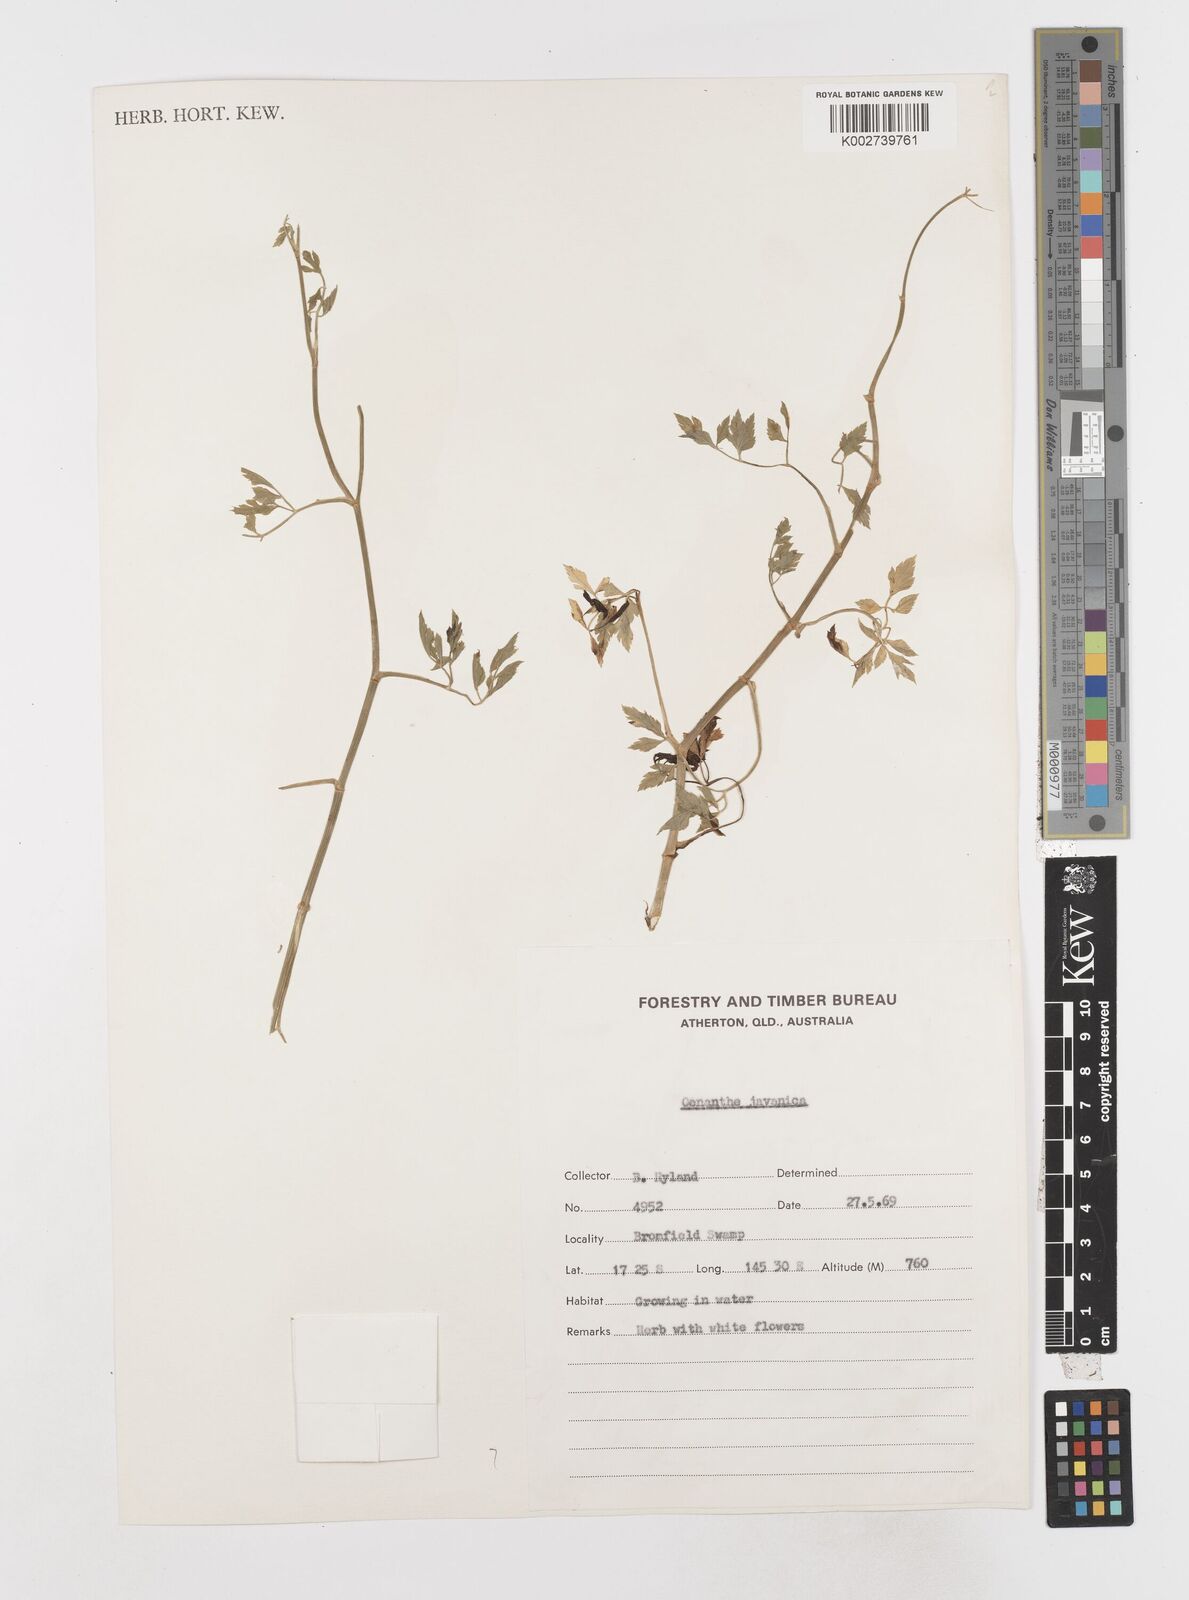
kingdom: Plantae
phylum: Tracheophyta
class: Magnoliopsida
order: Apiales
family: Apiaceae
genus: Oenanthe
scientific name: Oenanthe javanica
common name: Java water-dropwort
